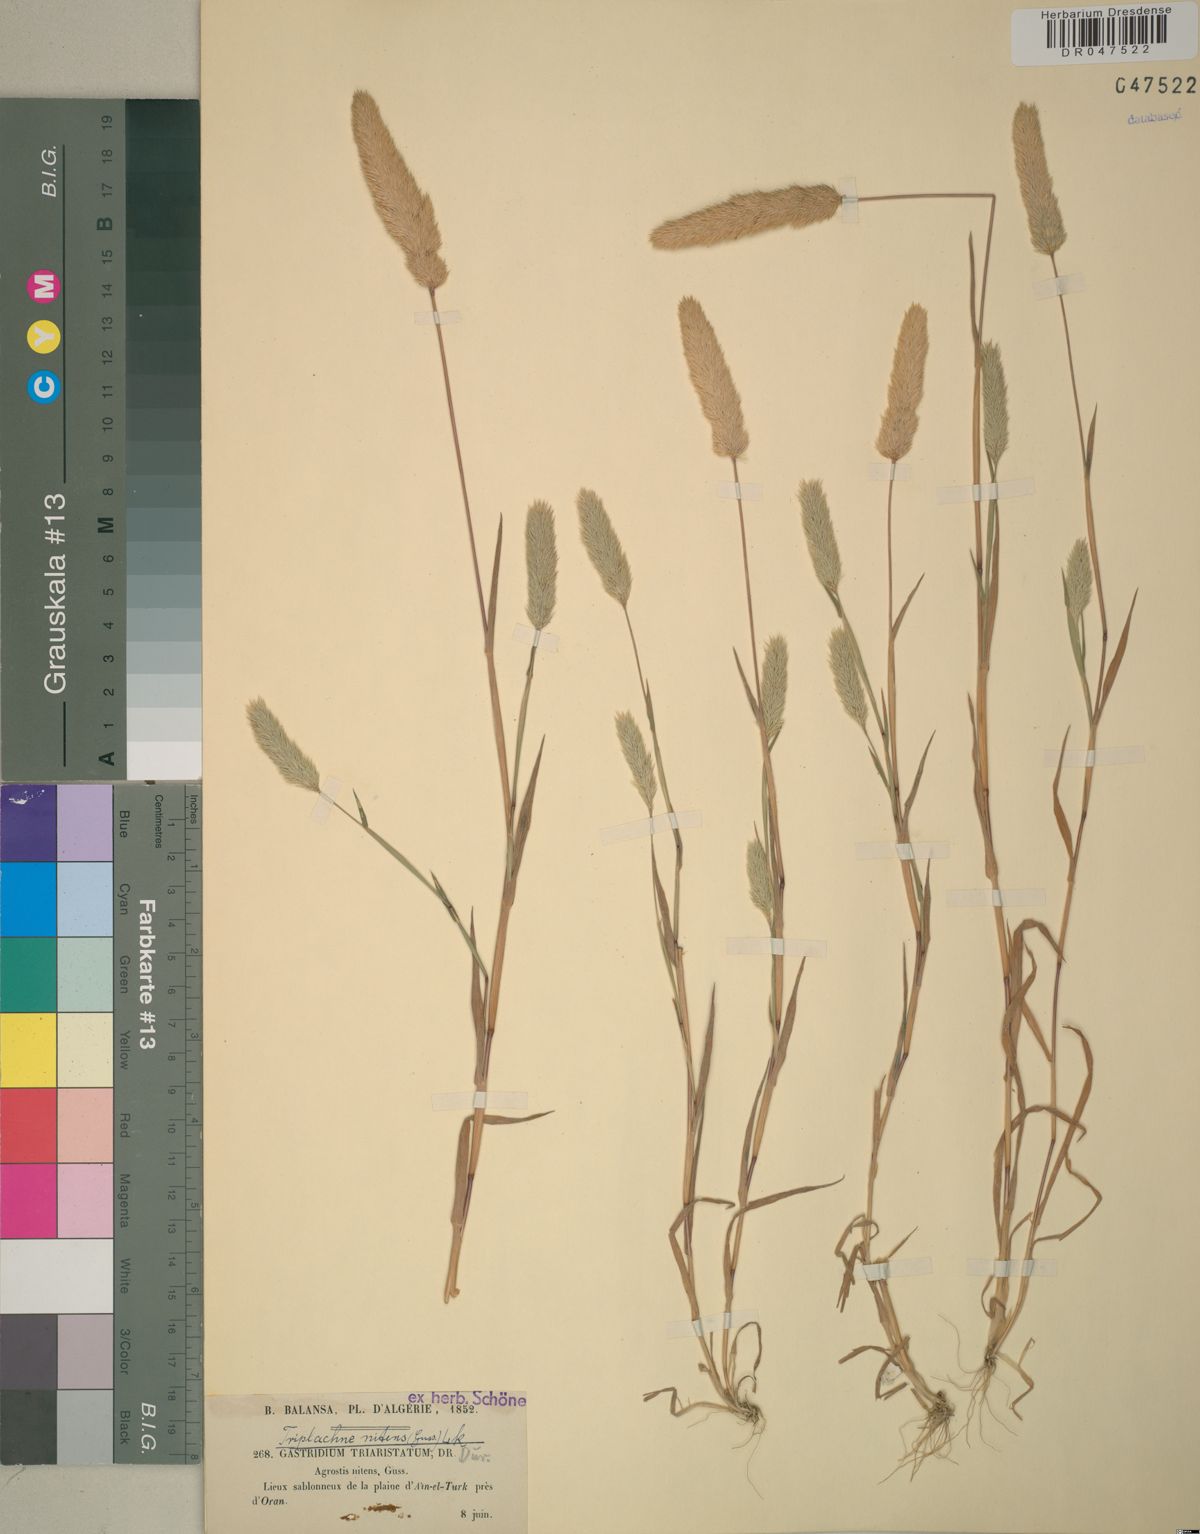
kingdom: Plantae
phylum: Tracheophyta
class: Liliopsida
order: Poales
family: Poaceae
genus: Triplachne
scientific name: Triplachne nitens
